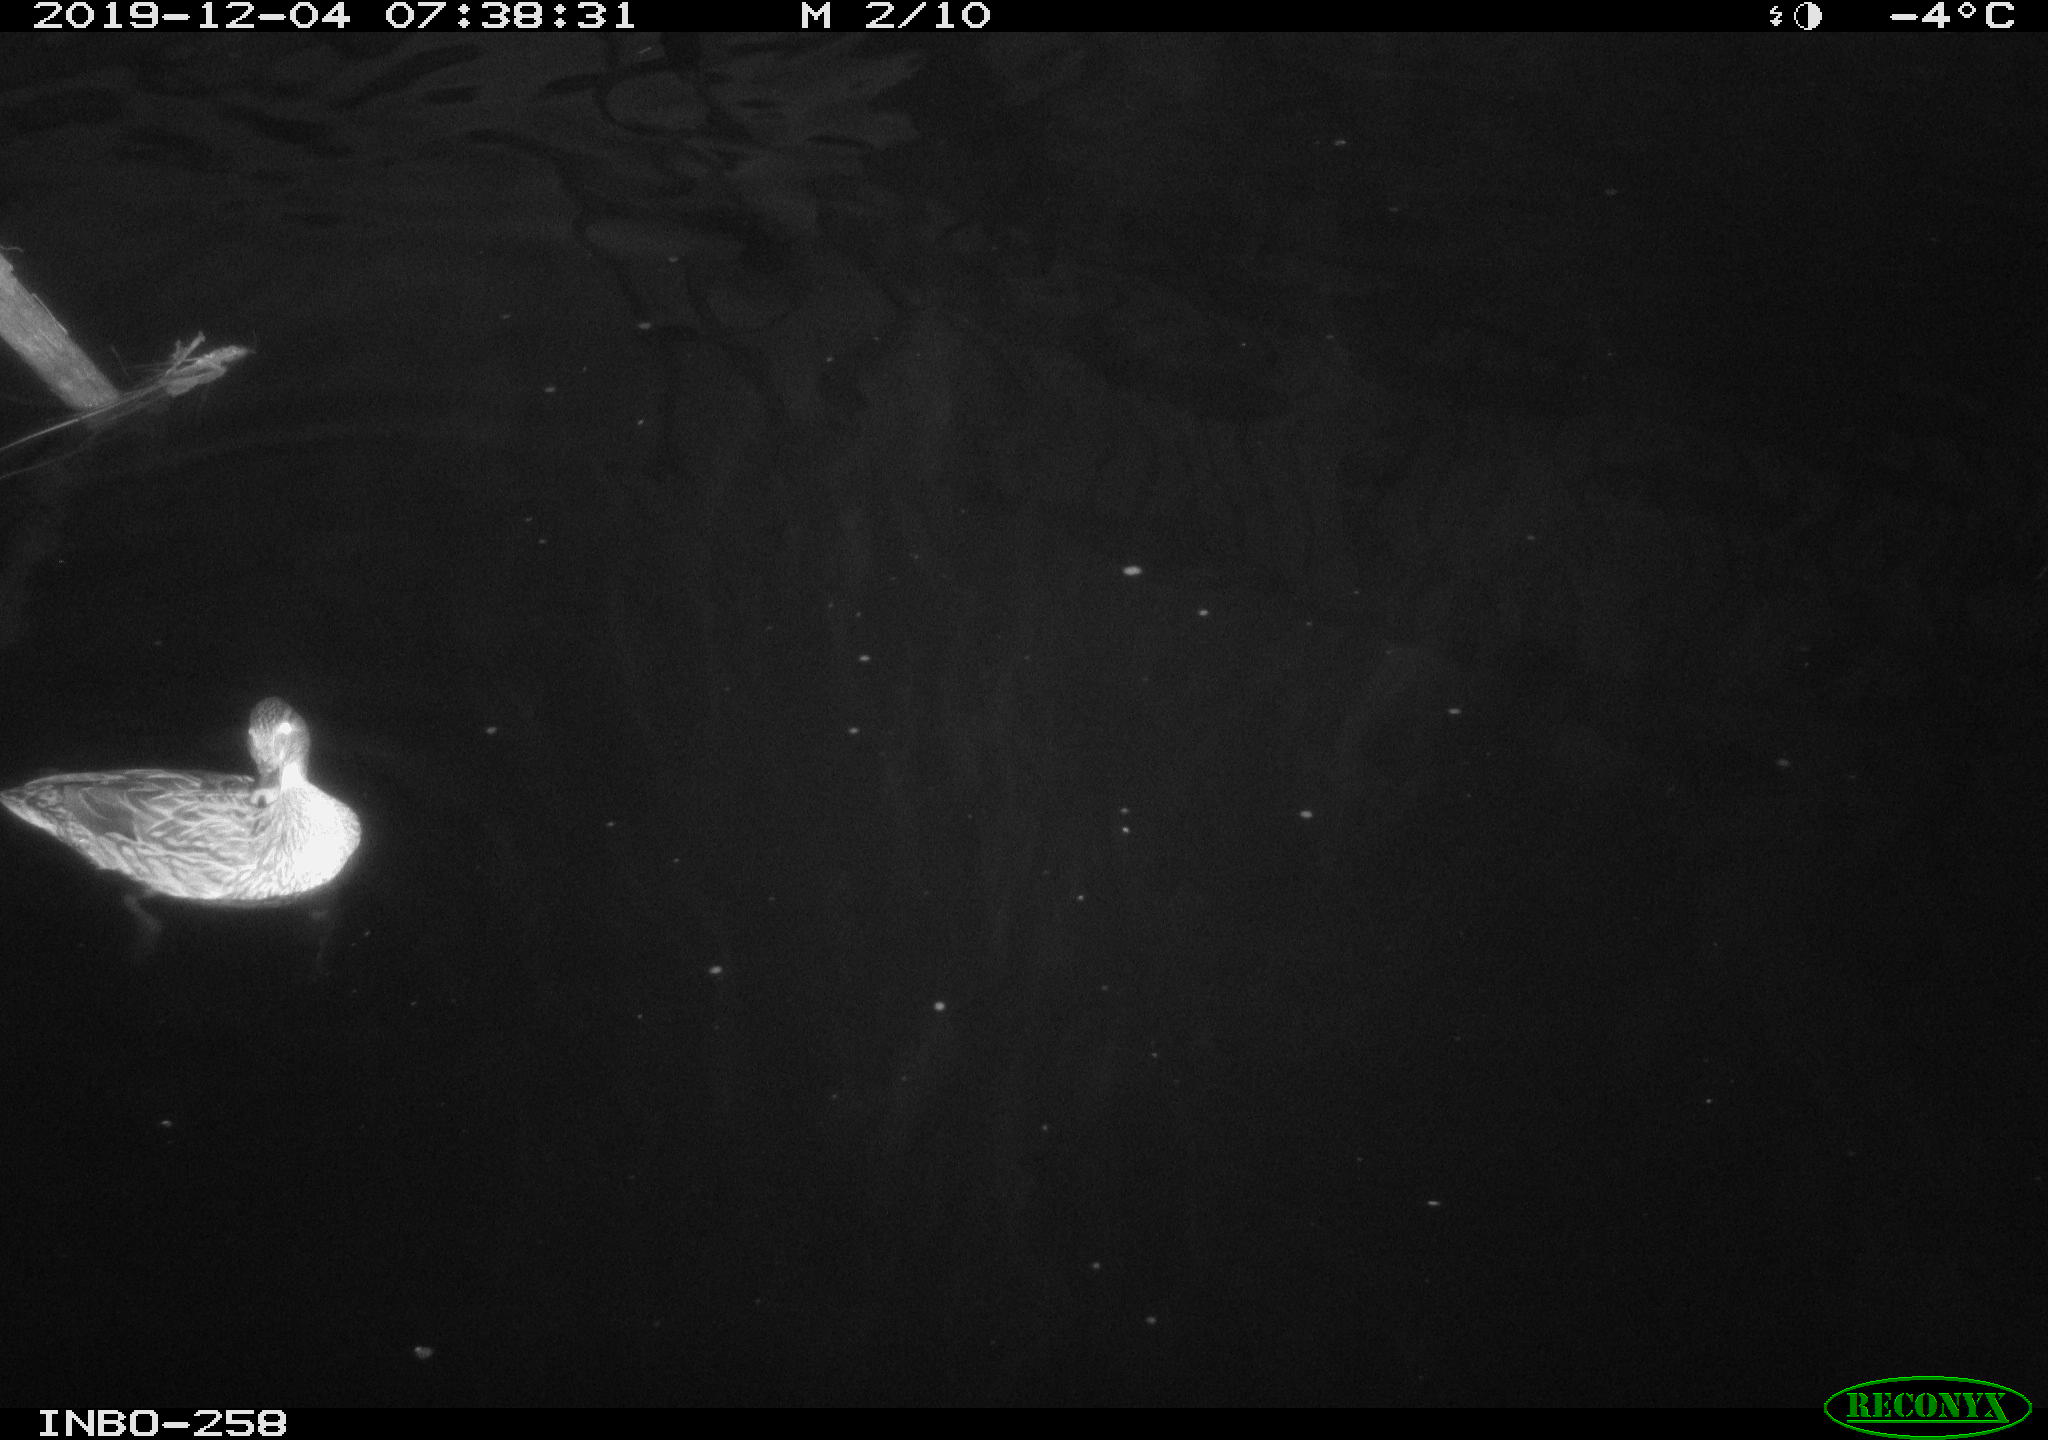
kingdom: Animalia
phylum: Chordata
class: Aves
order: Anseriformes
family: Anatidae
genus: Anas
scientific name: Anas platyrhynchos
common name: Mallard
